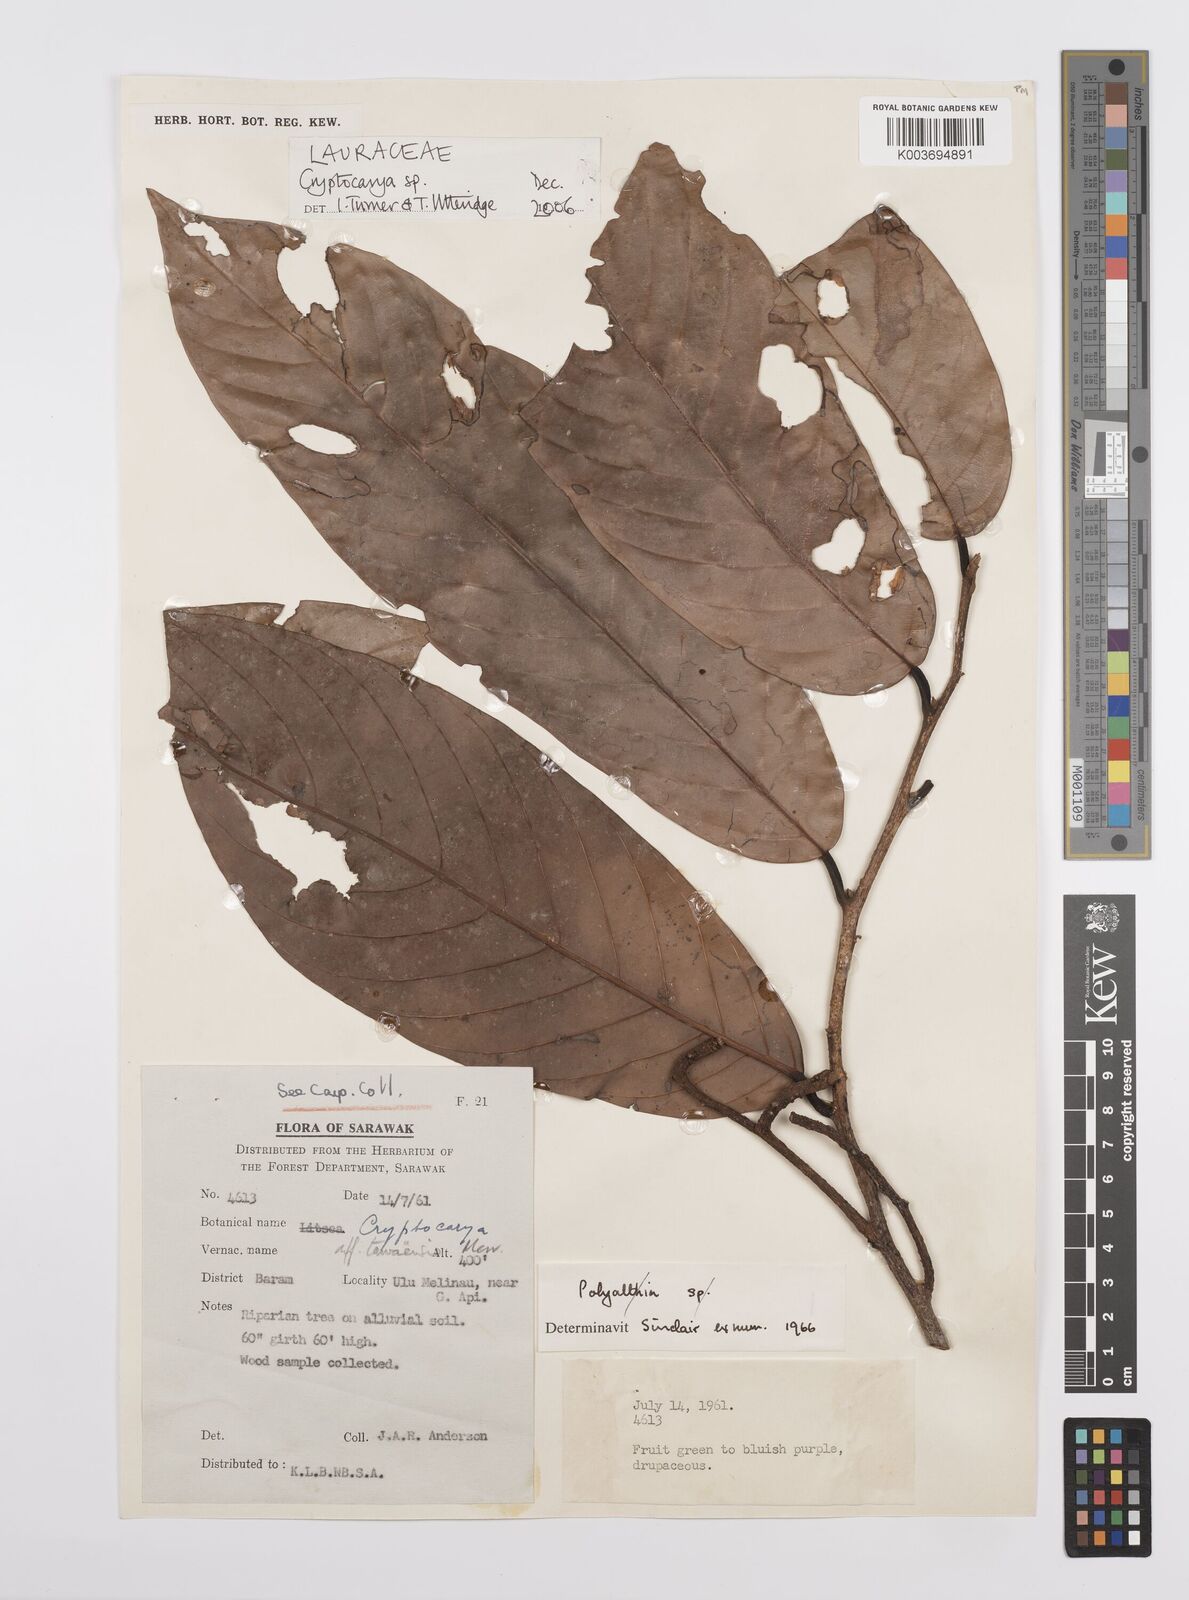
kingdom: Plantae
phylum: Tracheophyta
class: Magnoliopsida
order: Laurales
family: Lauraceae
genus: Cryptocarya
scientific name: Cryptocarya
